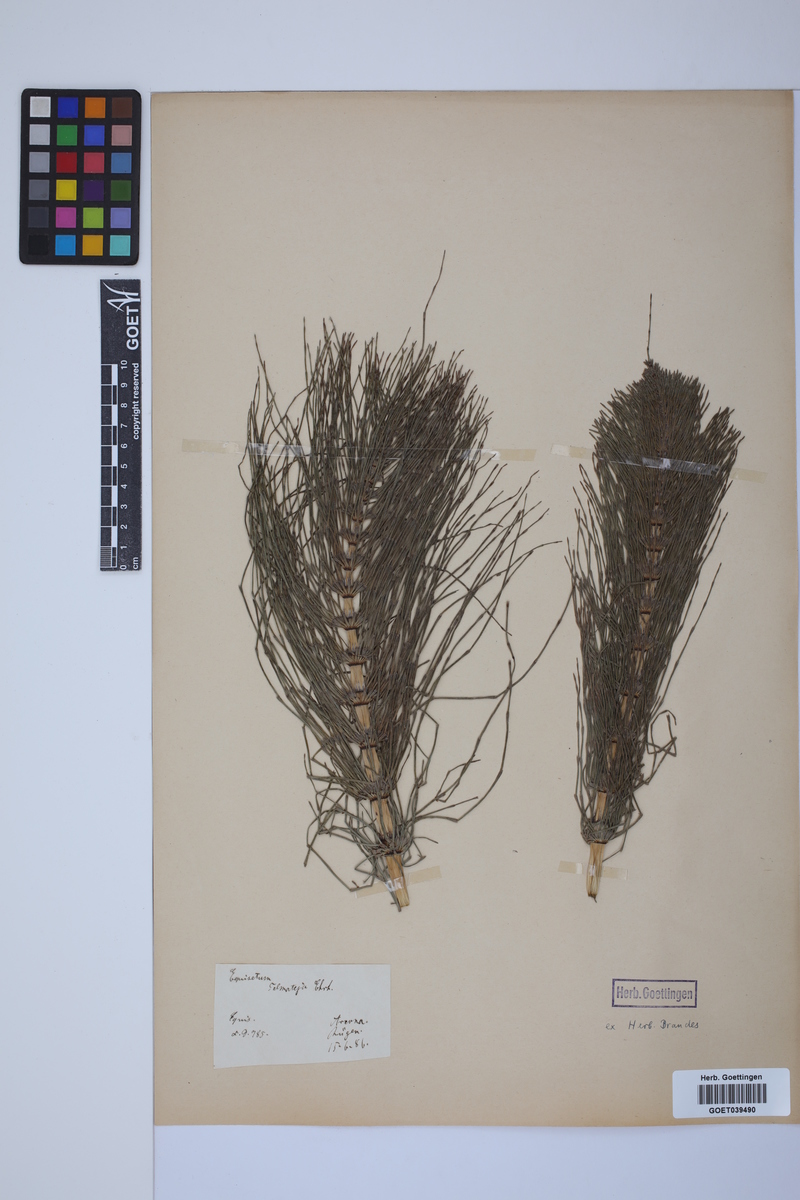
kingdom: Plantae
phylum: Tracheophyta
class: Polypodiopsida
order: Equisetales
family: Equisetaceae
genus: Equisetum
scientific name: Equisetum telmateia
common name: Great horsetail
